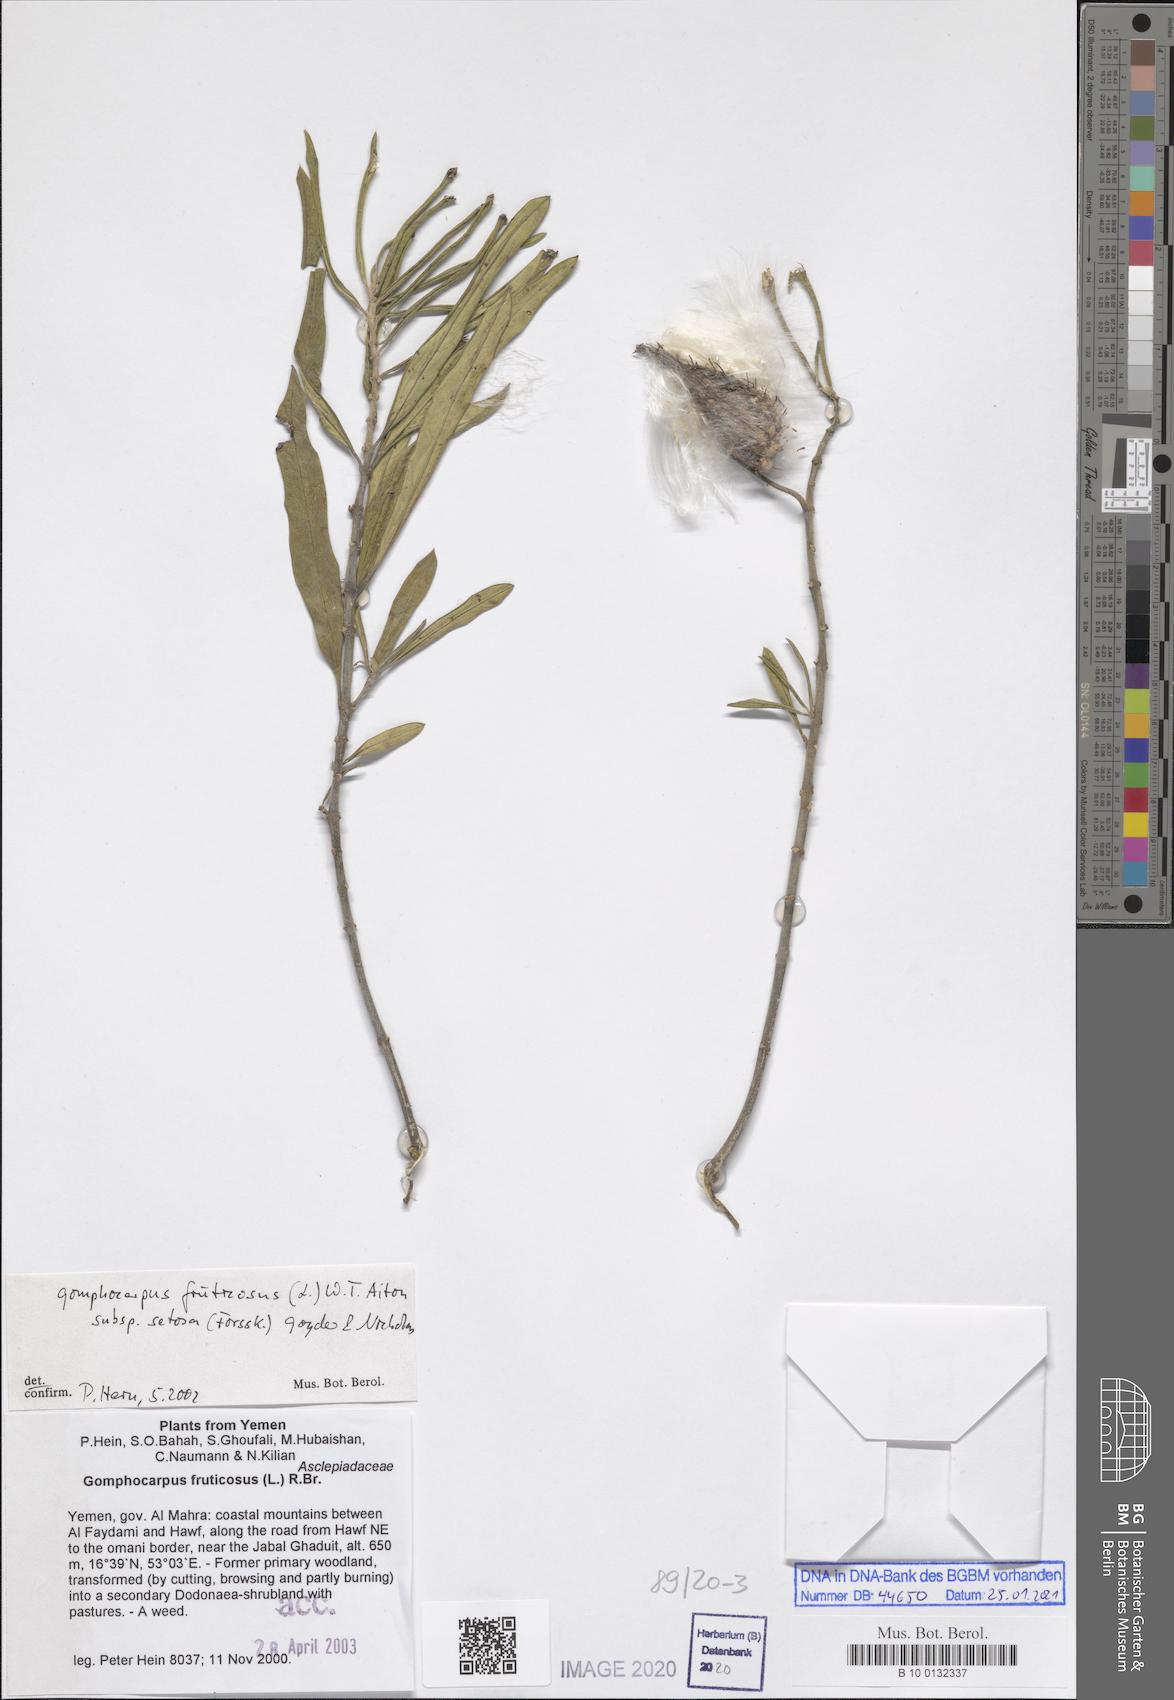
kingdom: Plantae
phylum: Tracheophyta
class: Magnoliopsida
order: Gentianales
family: Apocynaceae
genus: Gomphocarpus
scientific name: Gomphocarpus fruticosus
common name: Milkweed
